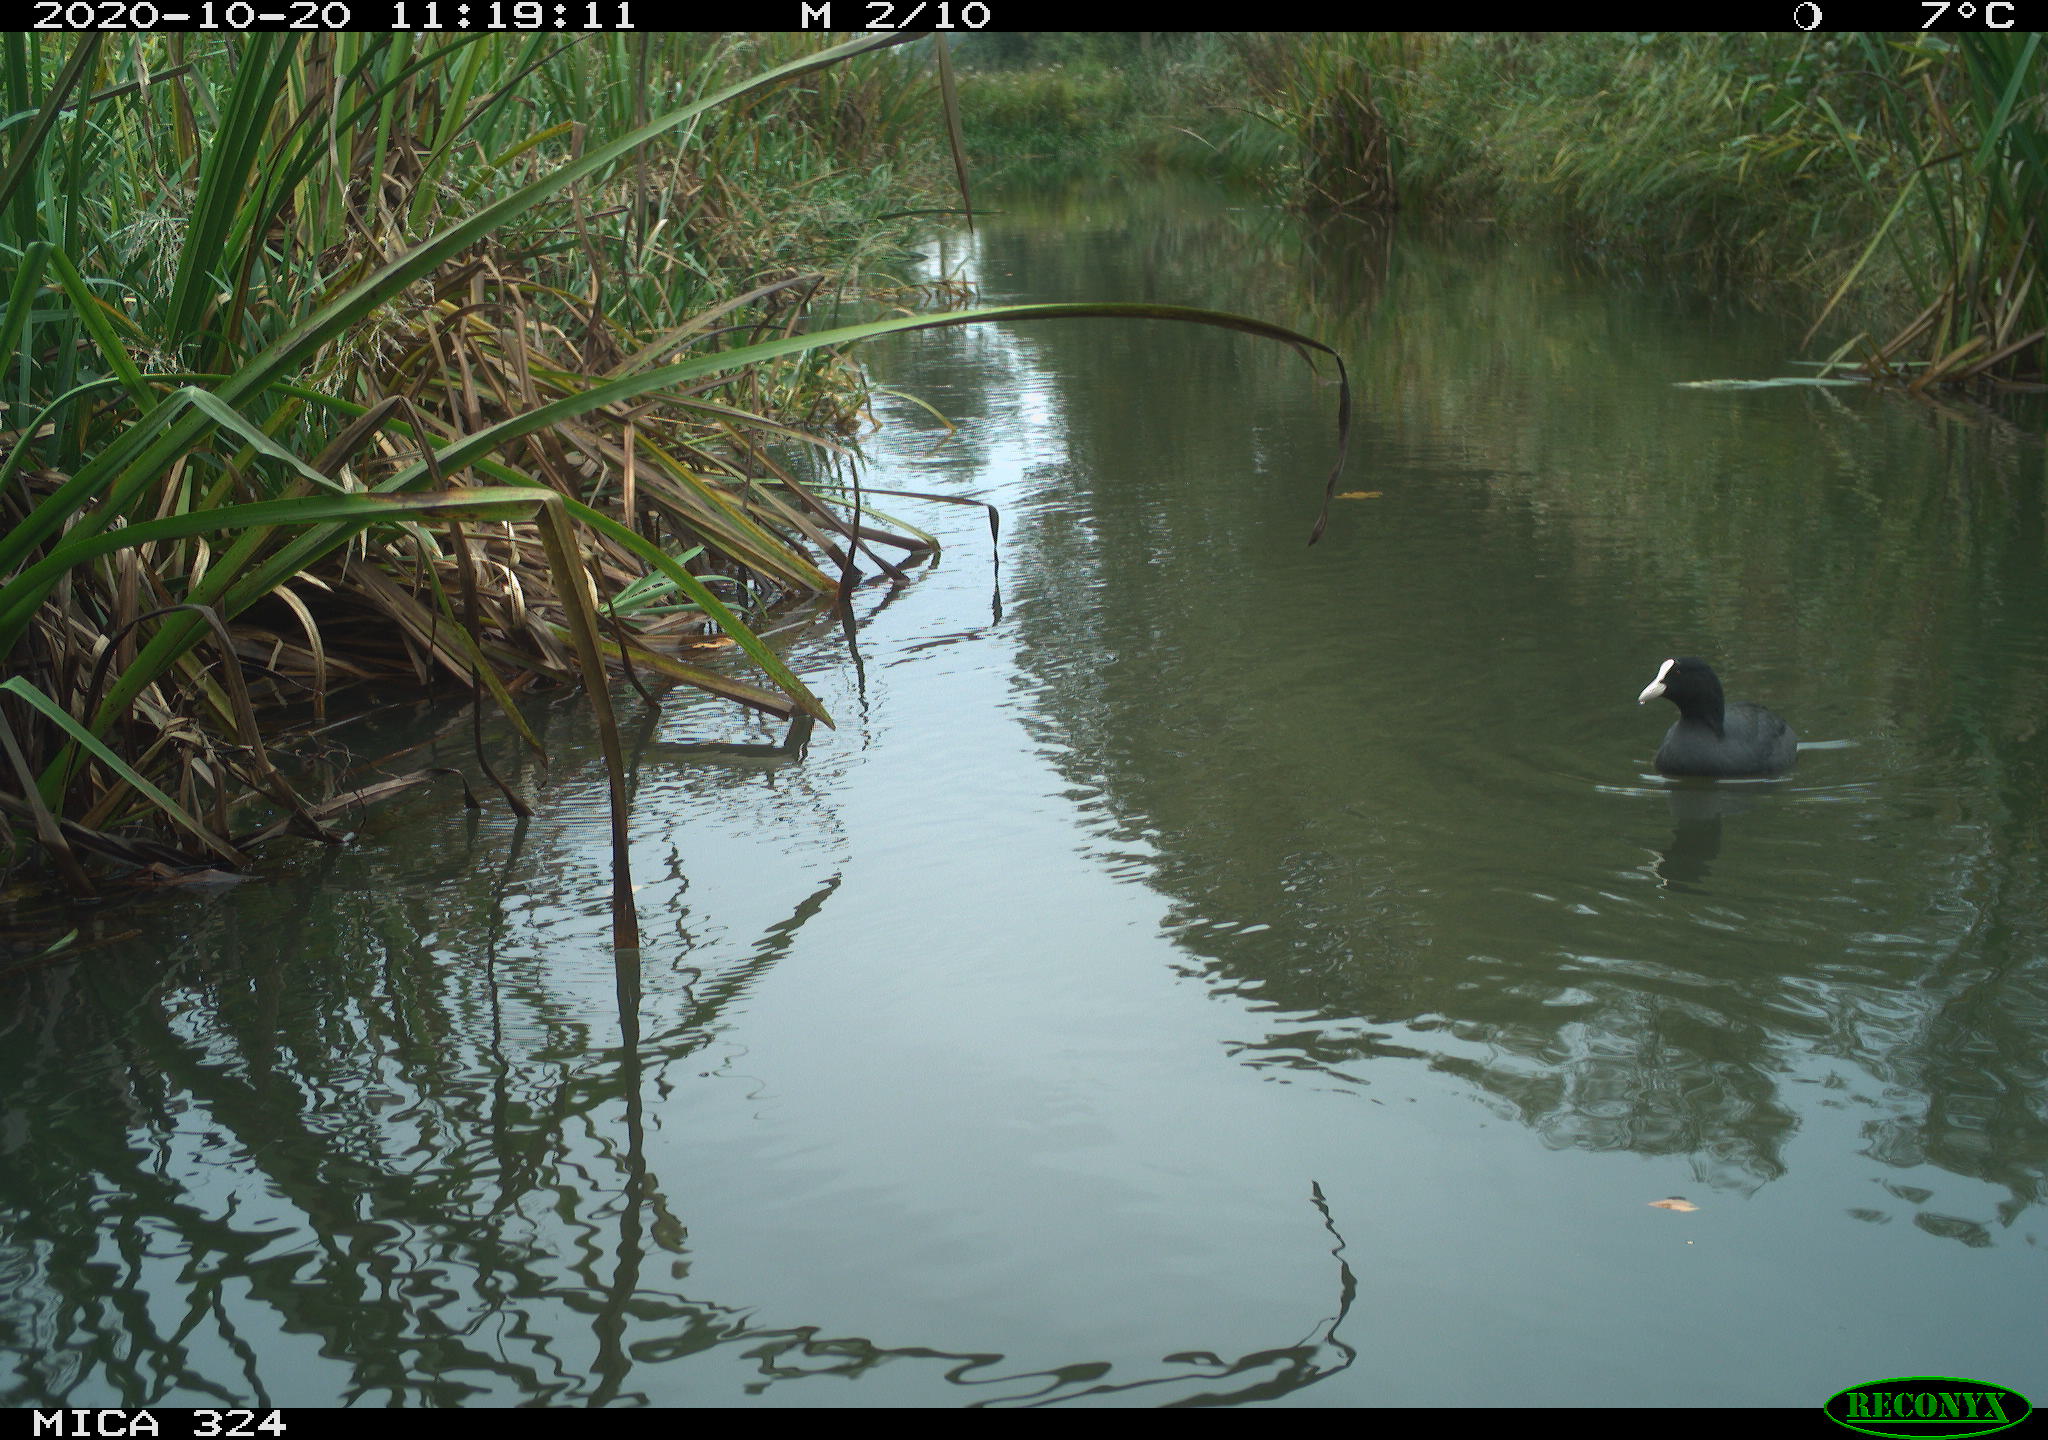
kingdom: Animalia
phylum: Chordata
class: Aves
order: Gruiformes
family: Rallidae
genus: Fulica
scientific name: Fulica atra
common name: Eurasian coot
